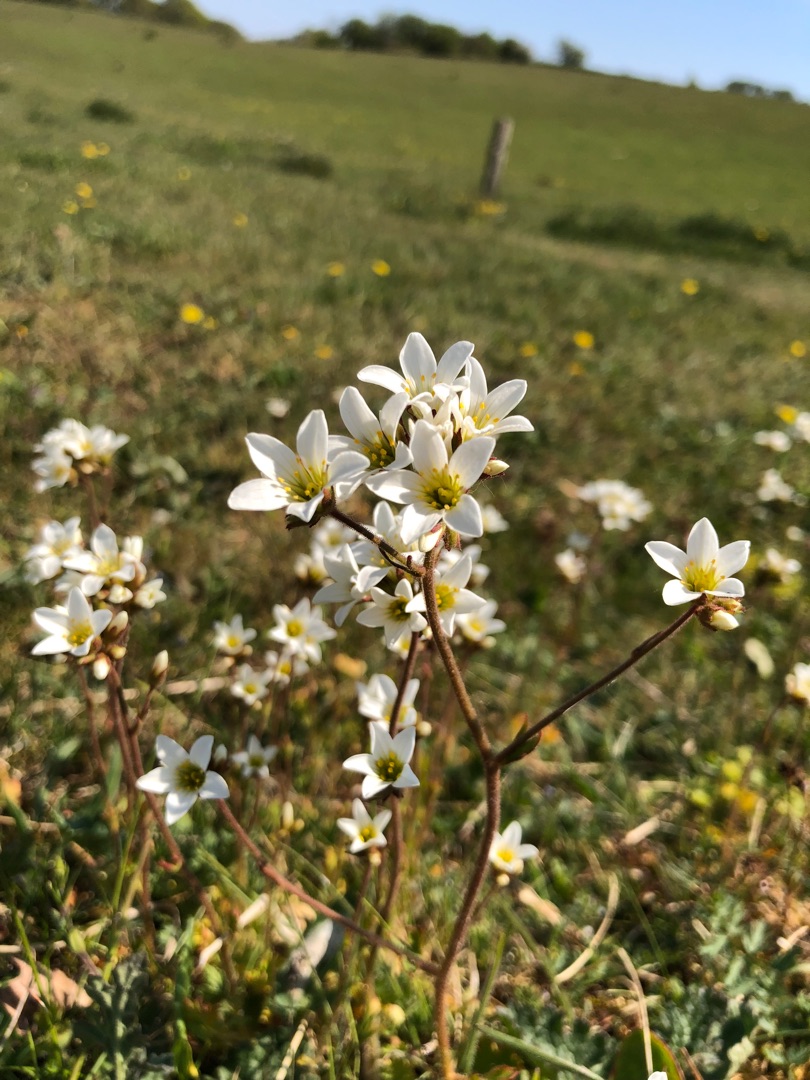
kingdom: Plantae
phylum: Tracheophyta
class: Magnoliopsida
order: Saxifragales
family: Saxifragaceae
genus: Saxifraga
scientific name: Saxifraga granulata
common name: Kornet stenbræk
